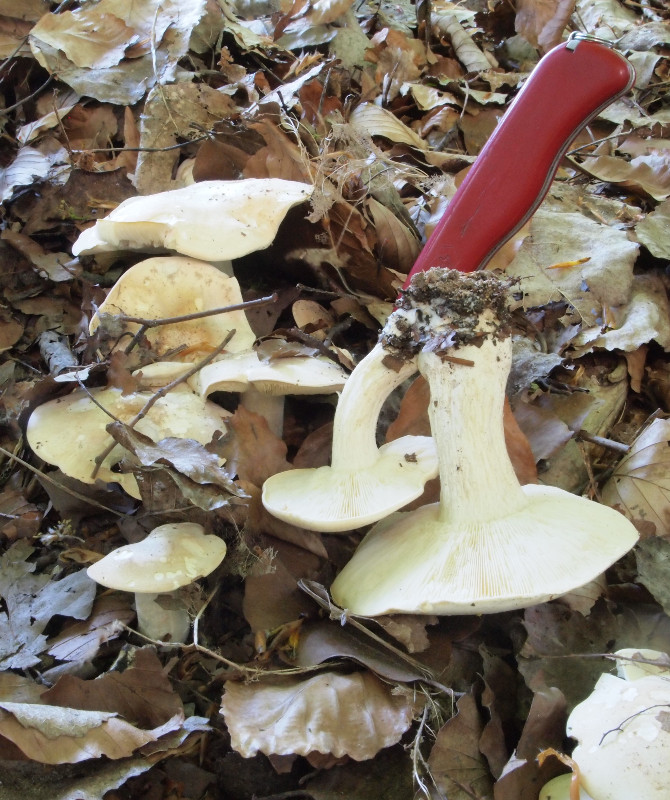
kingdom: Fungi
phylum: Basidiomycota
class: Agaricomycetes
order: Agaricales
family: Lyophyllaceae
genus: Calocybe
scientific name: Calocybe gambosa
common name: vårmusseron
